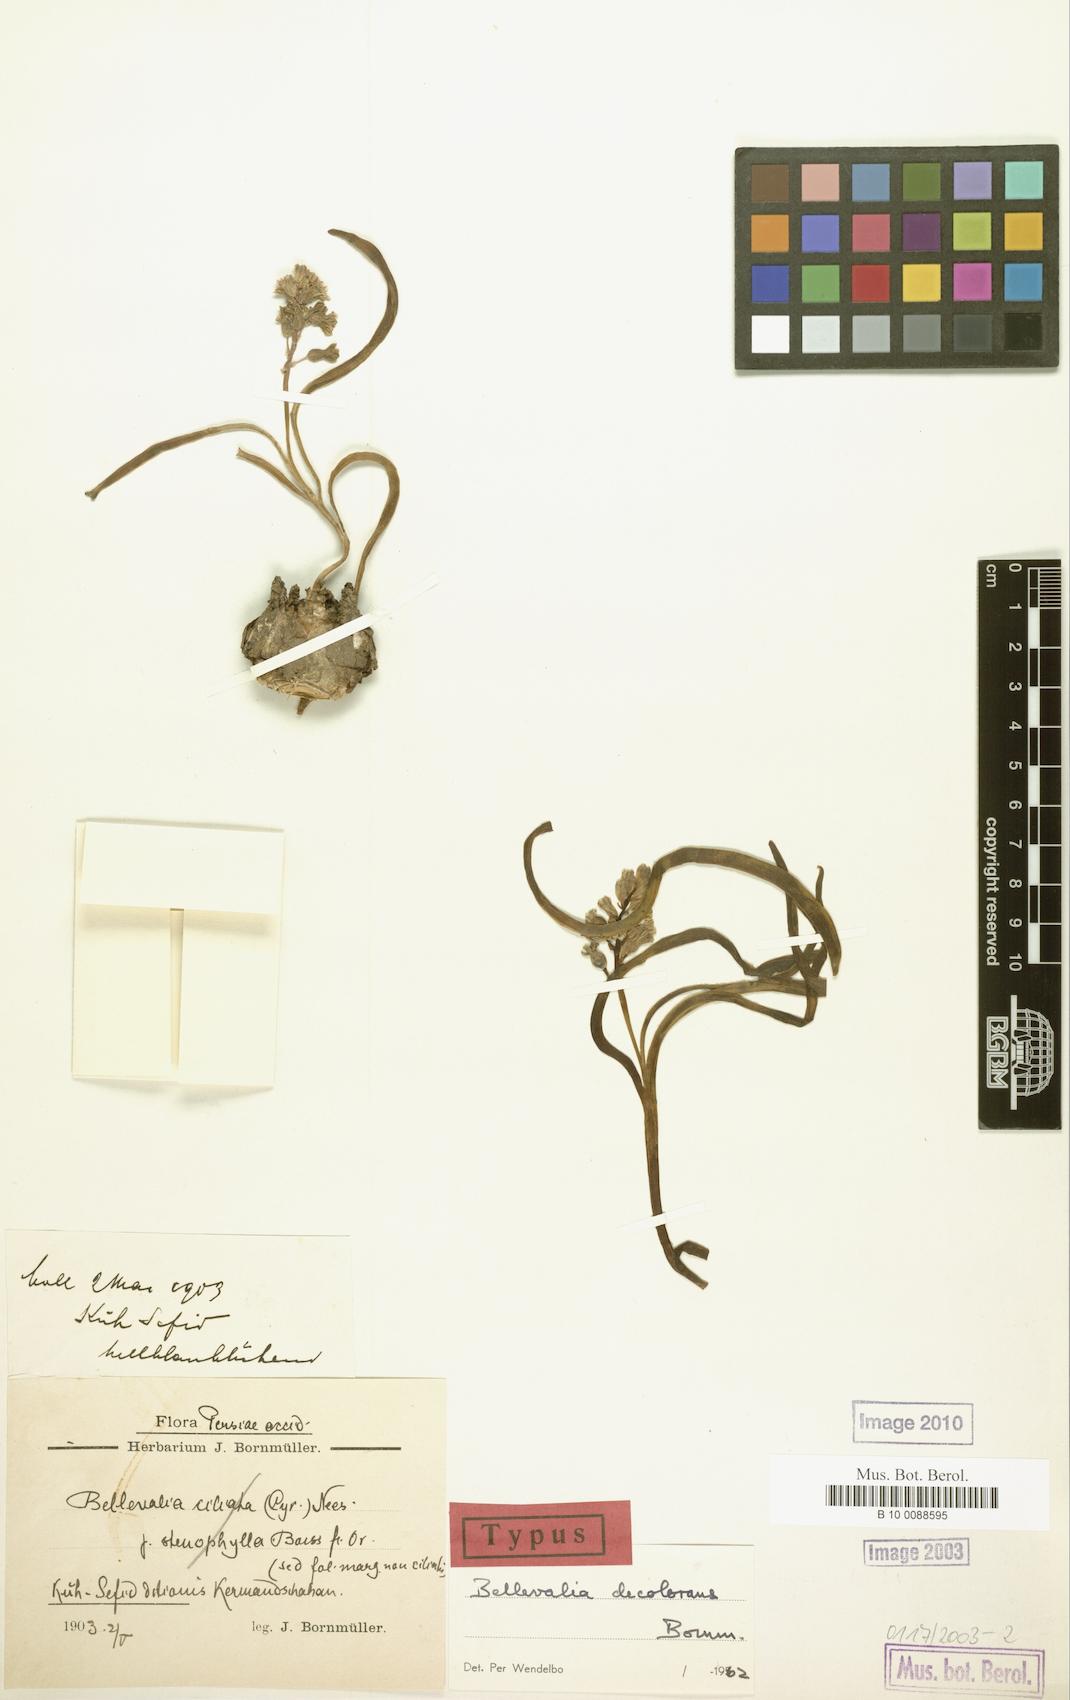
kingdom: Plantae
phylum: Tracheophyta
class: Liliopsida
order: Asparagales
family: Asparagaceae
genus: Bellevalia
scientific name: Bellevalia decolorans
